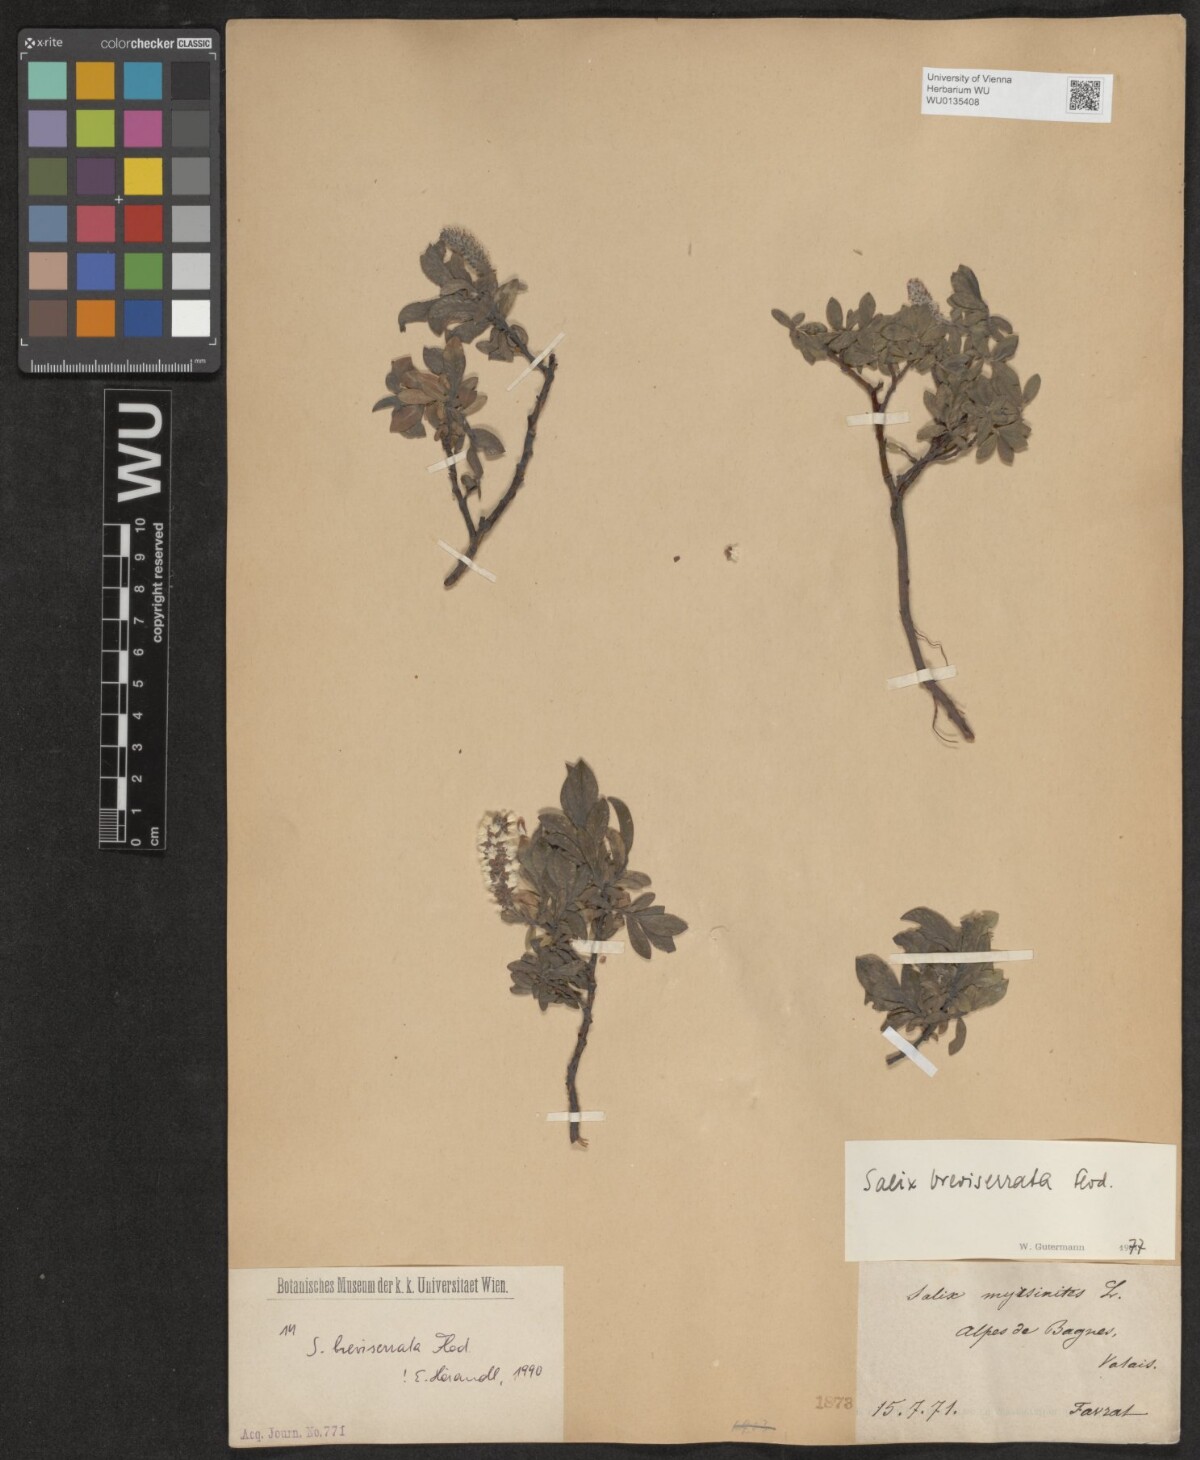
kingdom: Plantae
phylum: Tracheophyta
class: Magnoliopsida
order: Malpighiales
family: Salicaceae
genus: Salix
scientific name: Salix breviserrata
